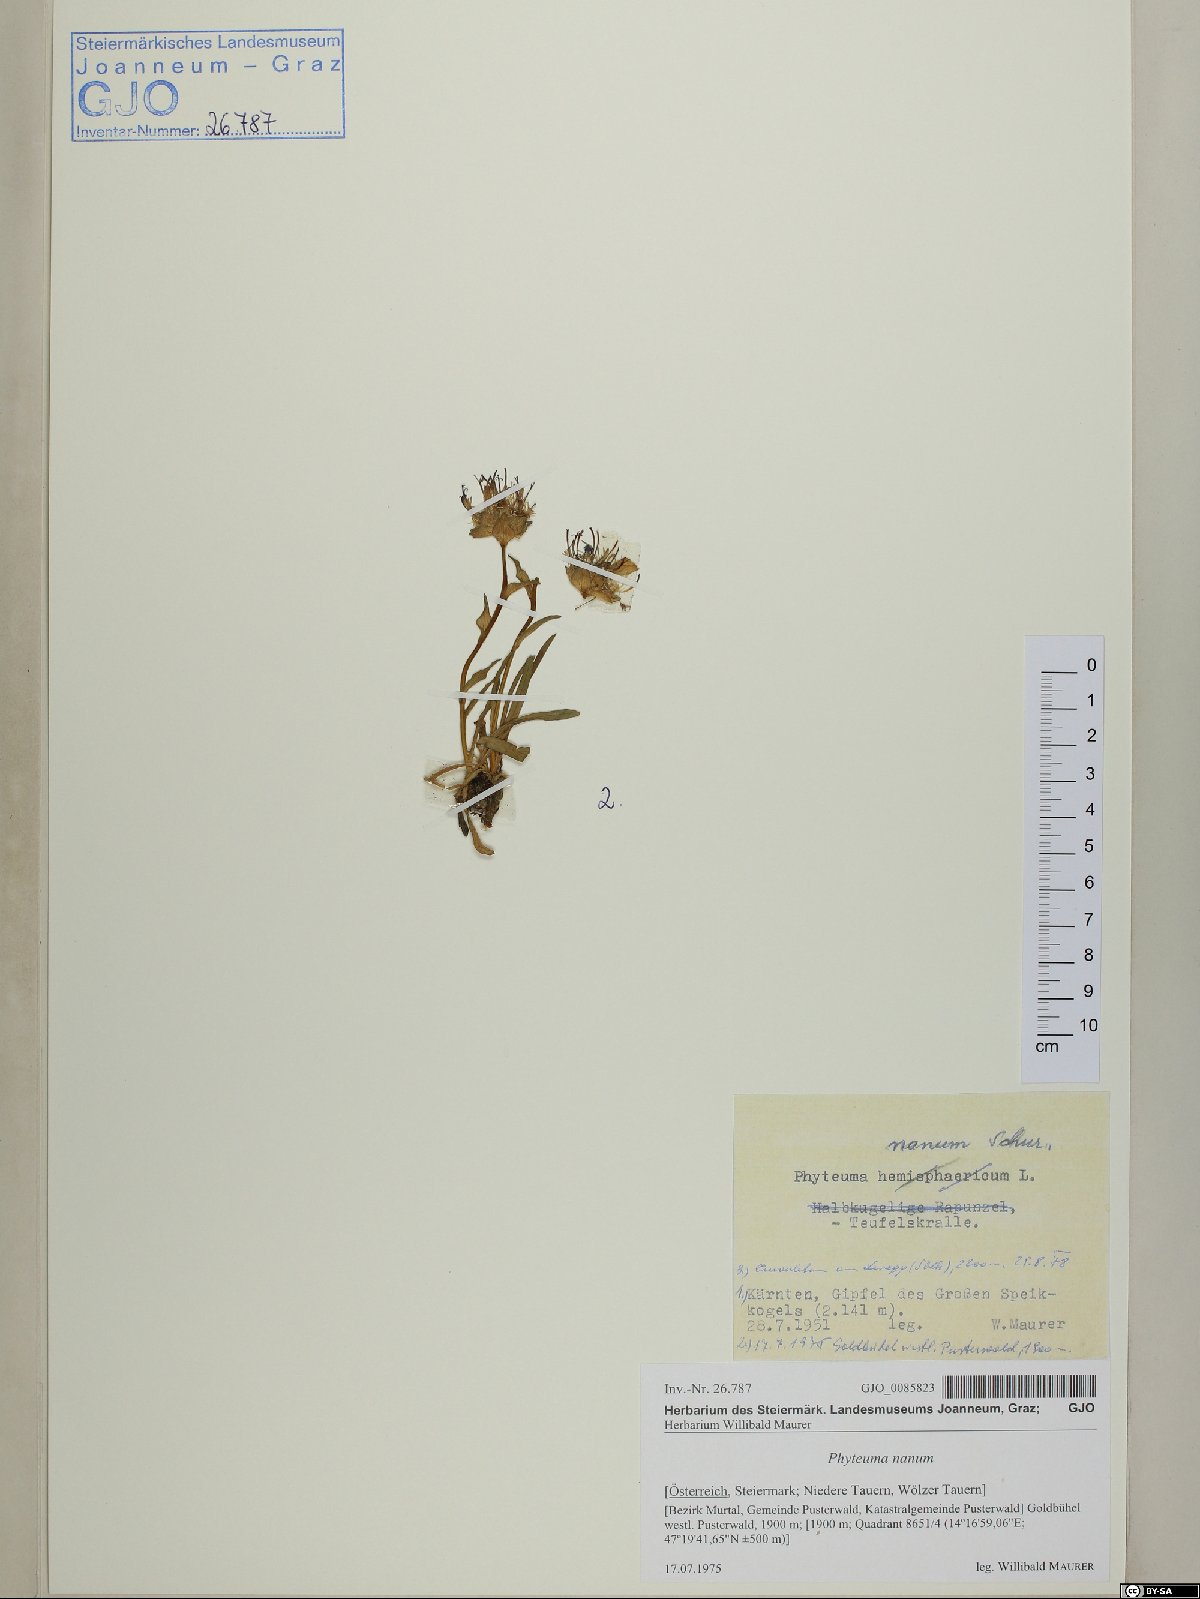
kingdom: Plantae
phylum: Tracheophyta
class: Magnoliopsida
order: Asterales
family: Campanulaceae
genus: Phyteuma
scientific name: Phyteuma globulariifolium
